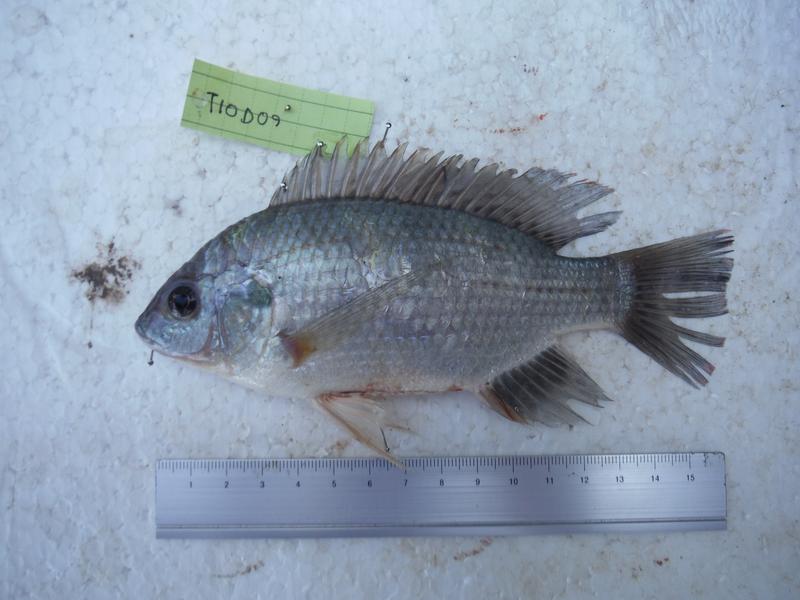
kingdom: Animalia
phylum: Chordata
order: Perciformes
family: Cichlidae
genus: Oreochromis
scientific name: Oreochromis rukwaensis
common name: Lake rukwa tilapia
